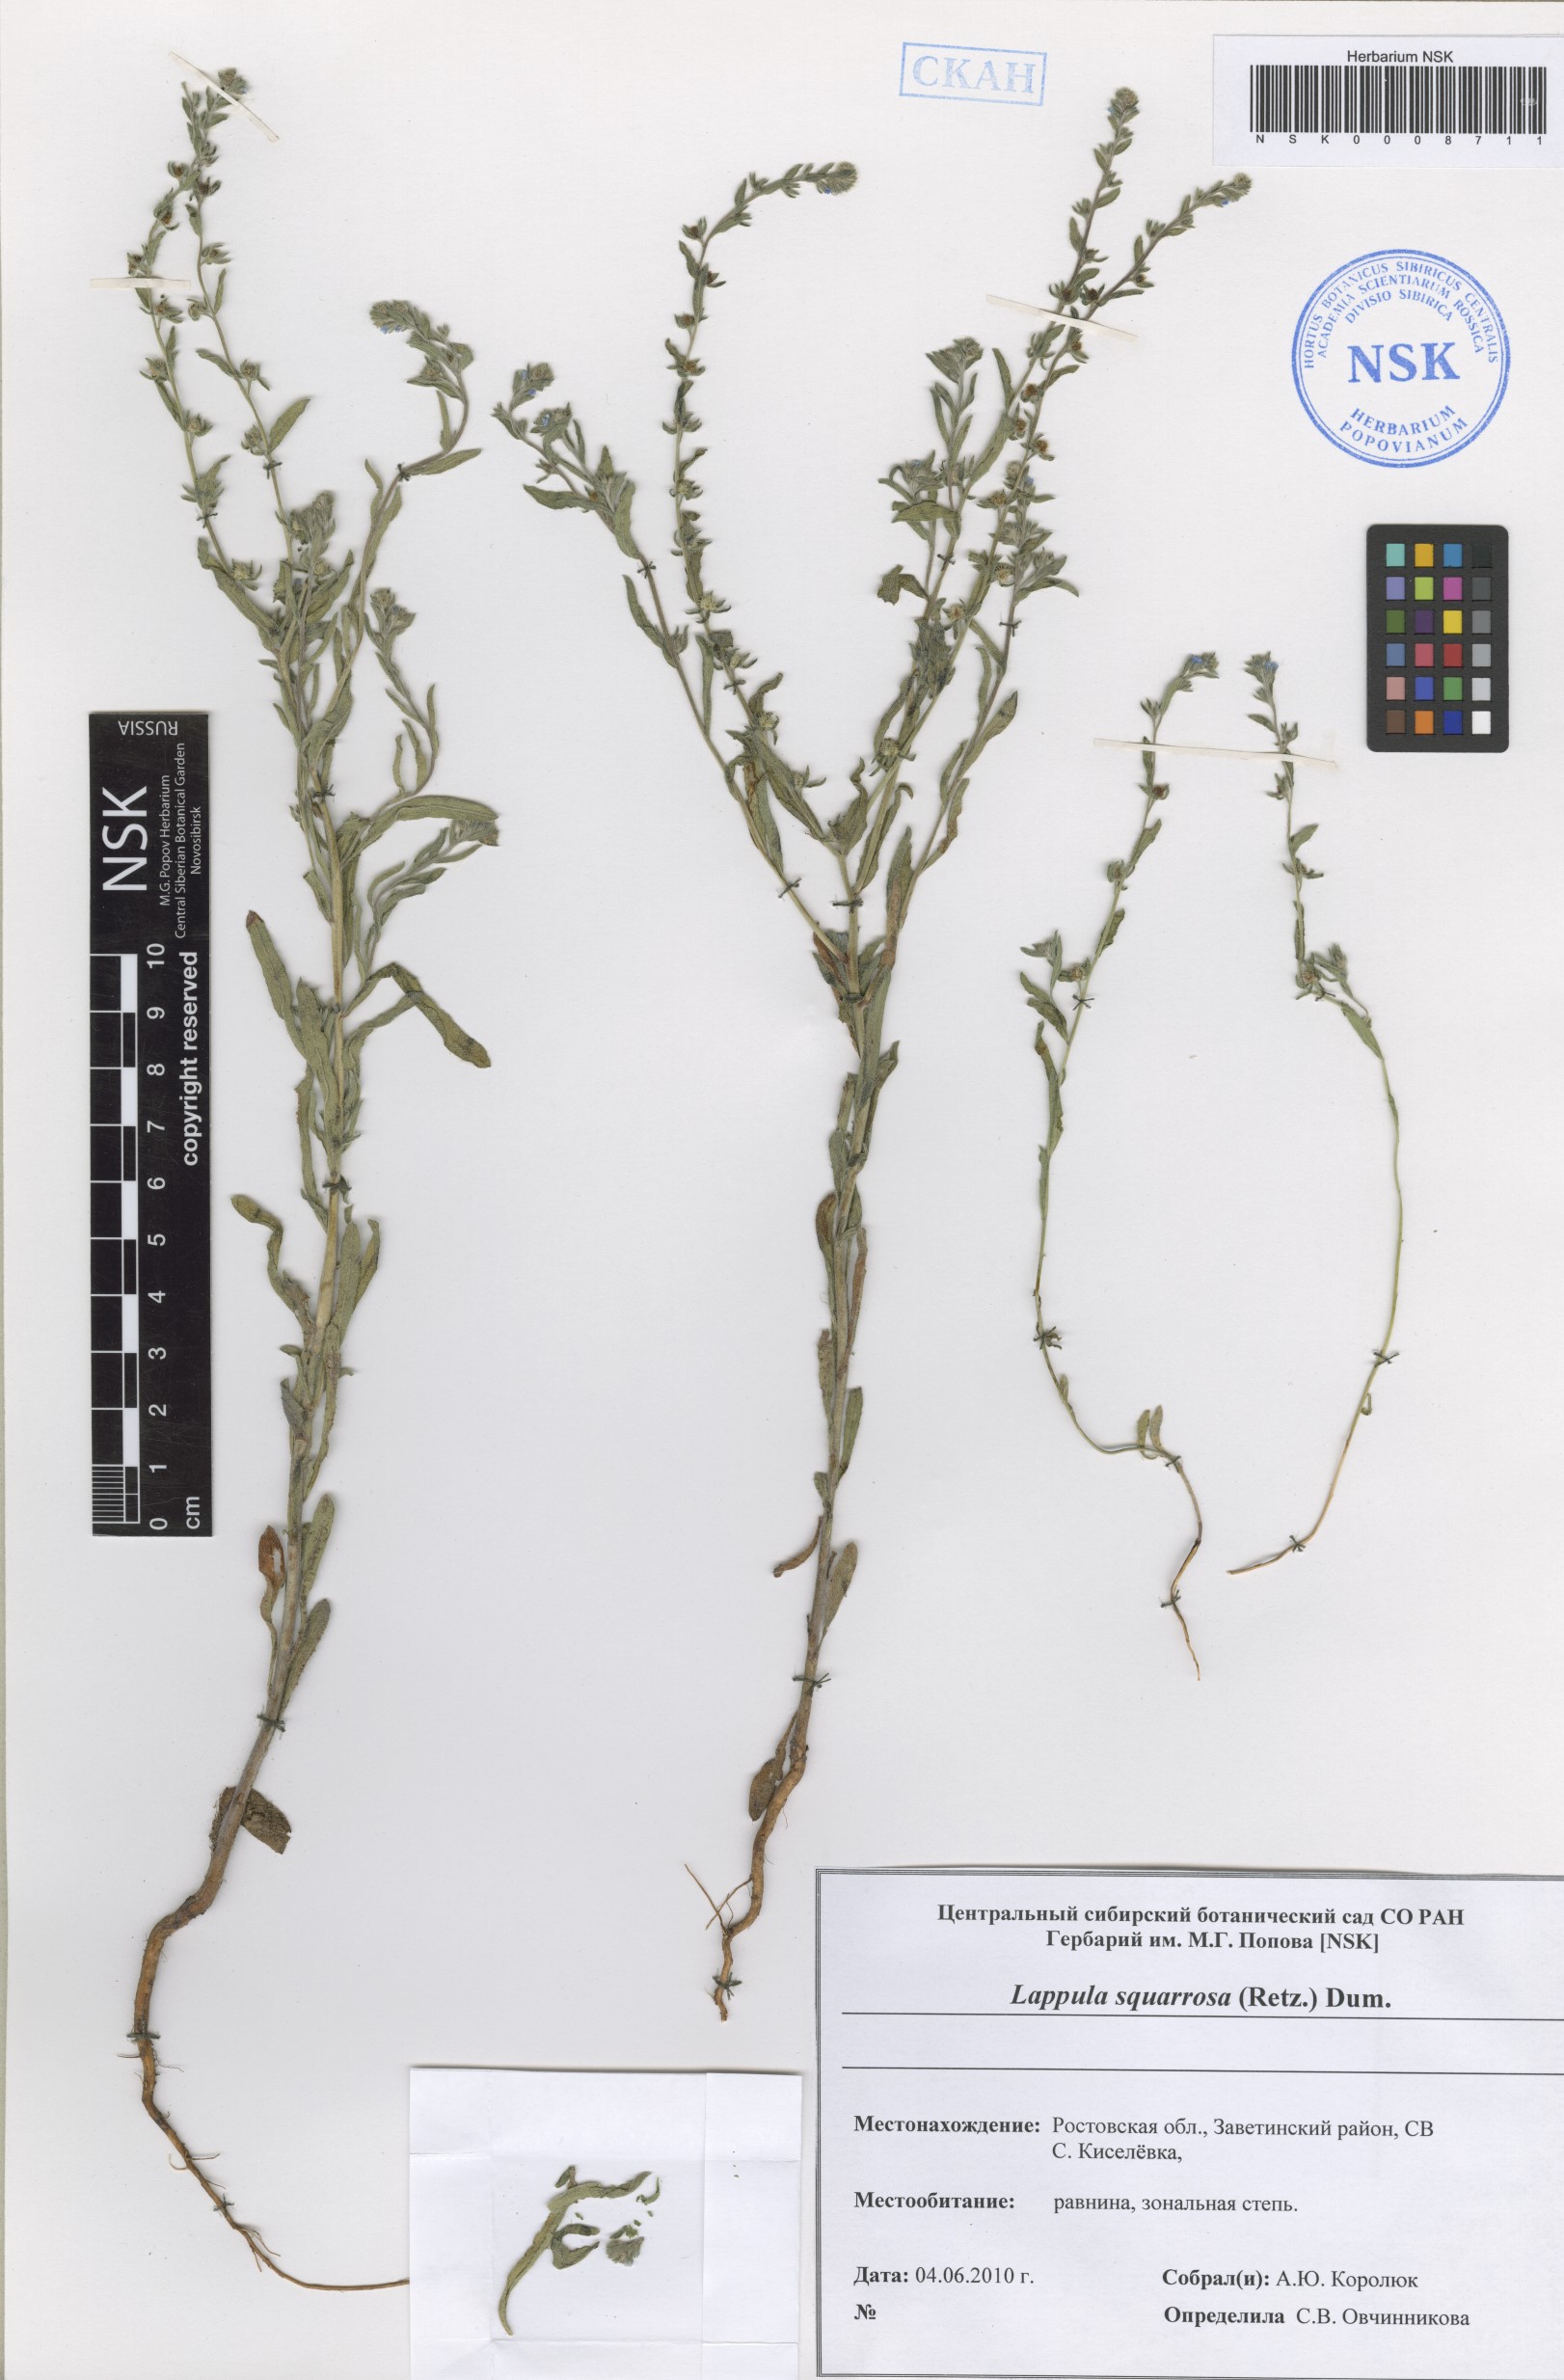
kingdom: Plantae
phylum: Tracheophyta
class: Magnoliopsida
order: Boraginales
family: Boraginaceae
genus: Lappula
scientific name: Lappula squarrosa
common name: European stickseed
